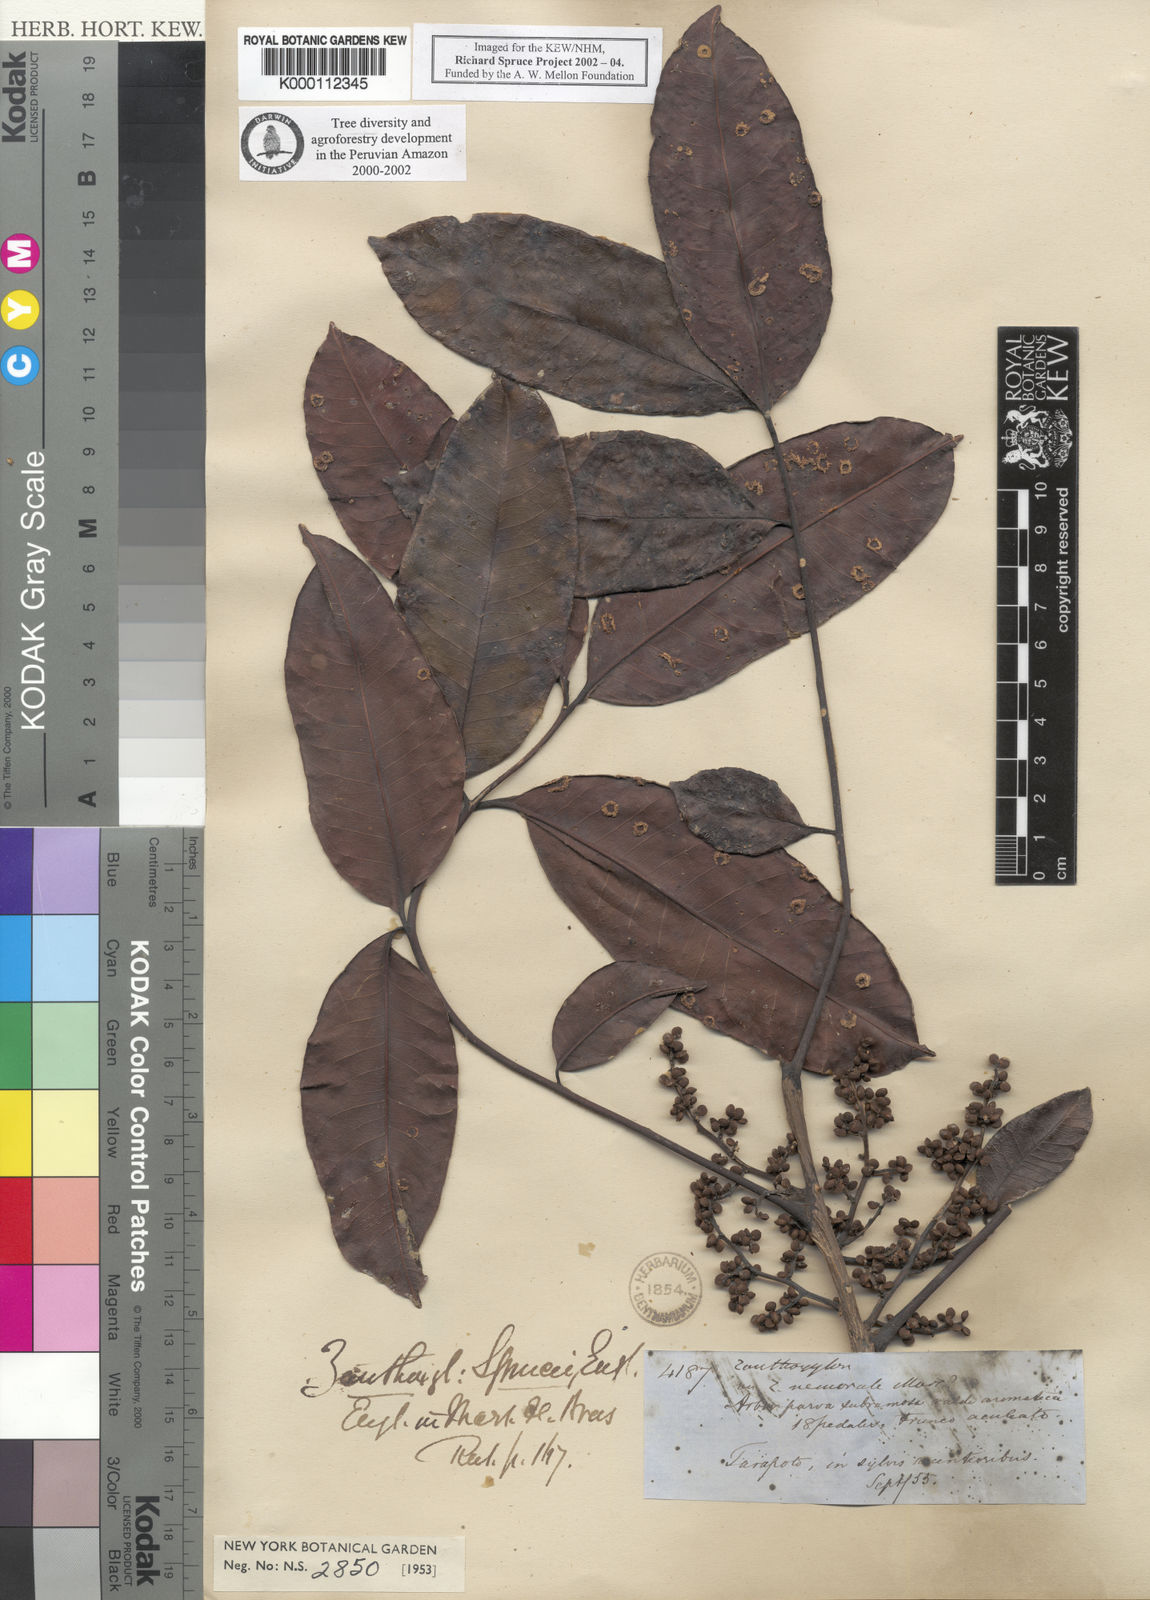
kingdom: Plantae
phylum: Tracheophyta
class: Magnoliopsida
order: Sapindales
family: Rutaceae
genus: Zanthoxylum
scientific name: Zanthoxylum sprucei
